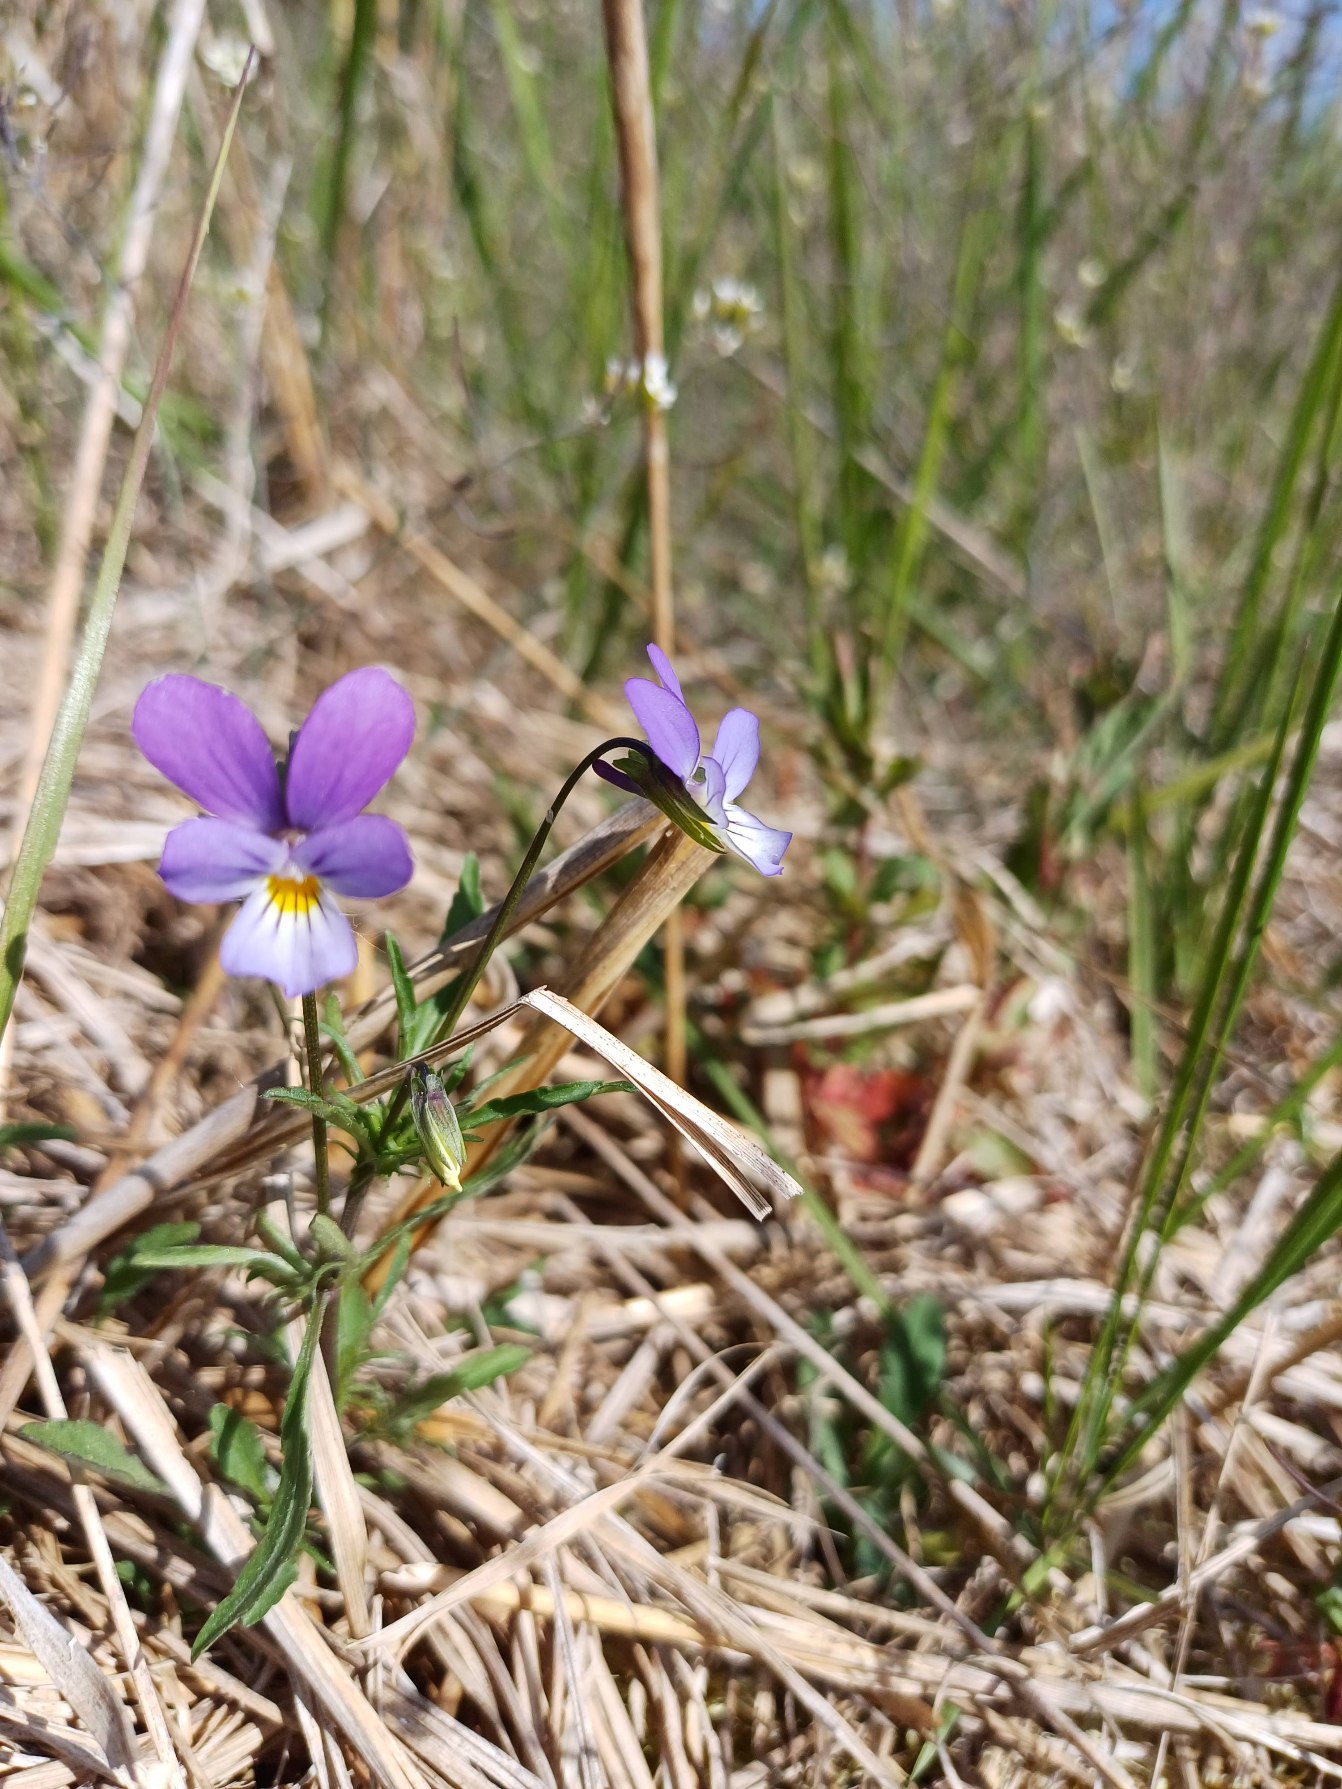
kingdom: Plantae
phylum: Tracheophyta
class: Magnoliopsida
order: Malpighiales
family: Violaceae
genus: Viola
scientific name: Viola tricolor
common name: Stedmoderblomst
